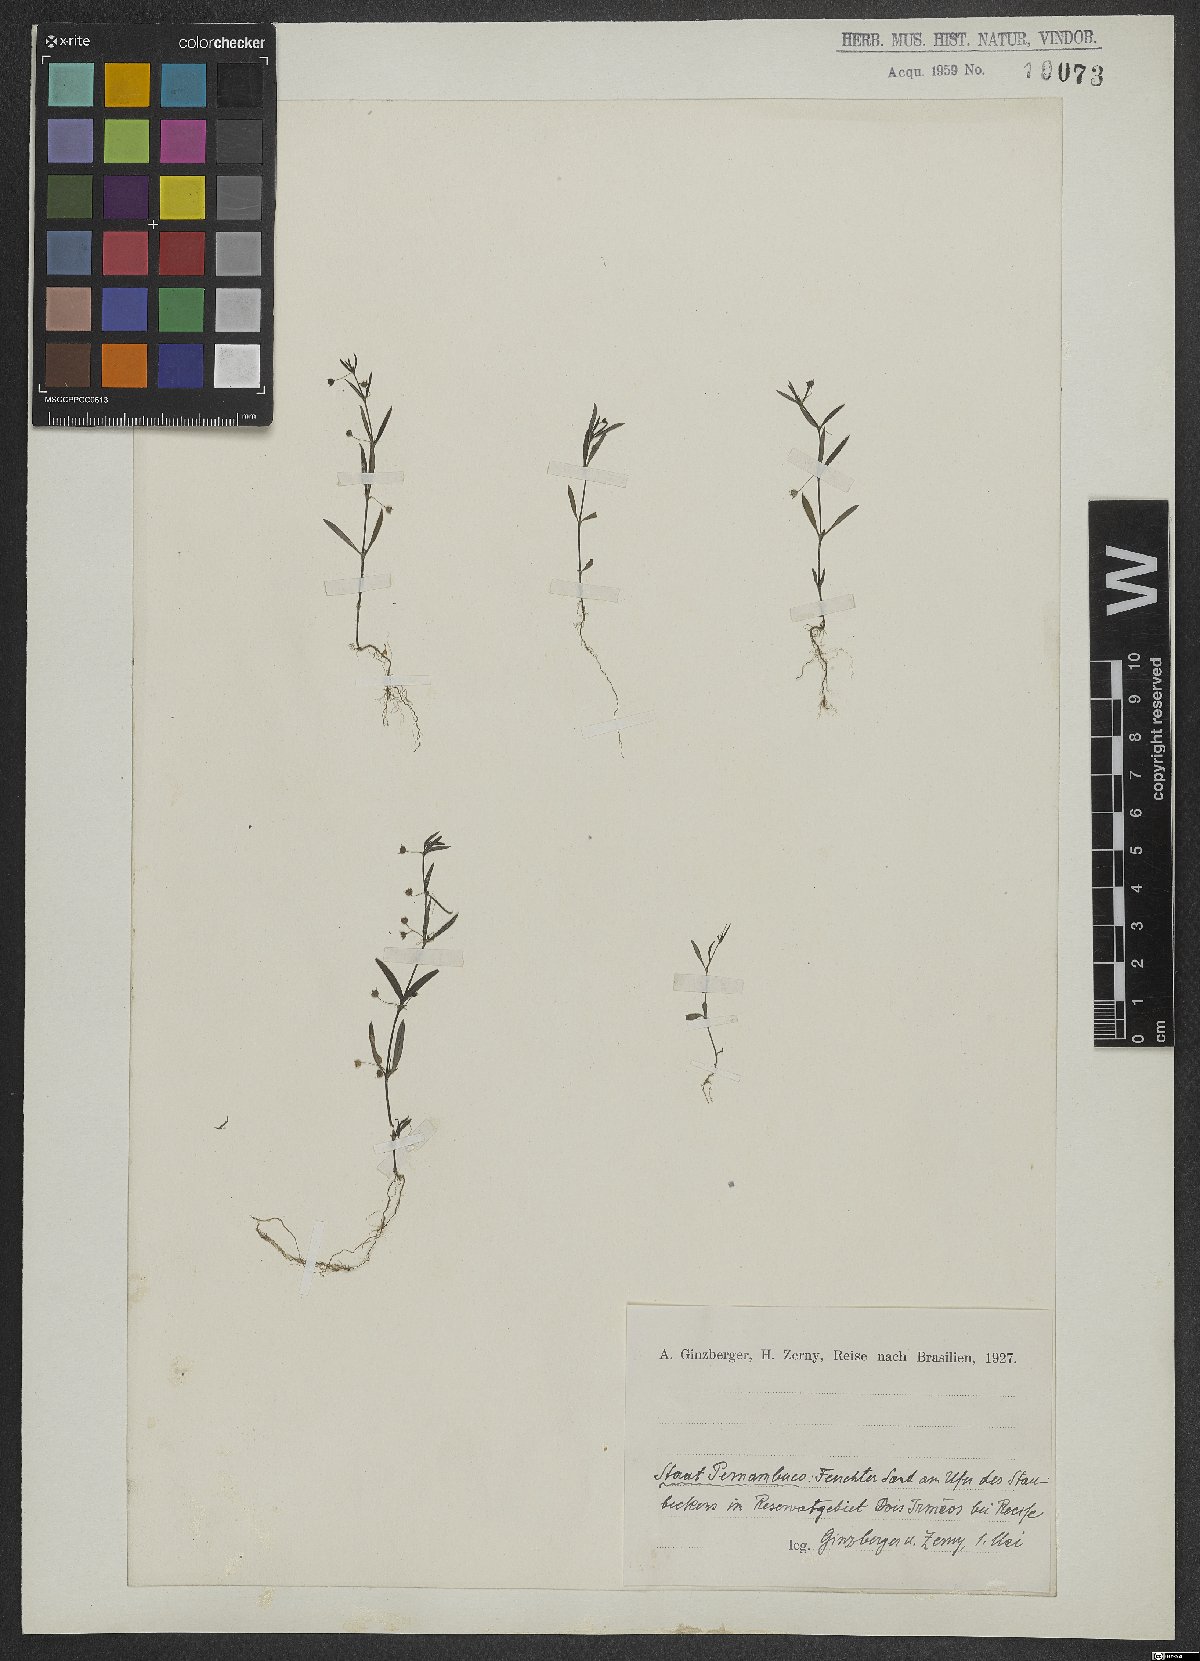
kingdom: Plantae
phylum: Tracheophyta
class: Magnoliopsida
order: Lamiales
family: Linderniaceae
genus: Lindernia
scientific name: Lindernia
